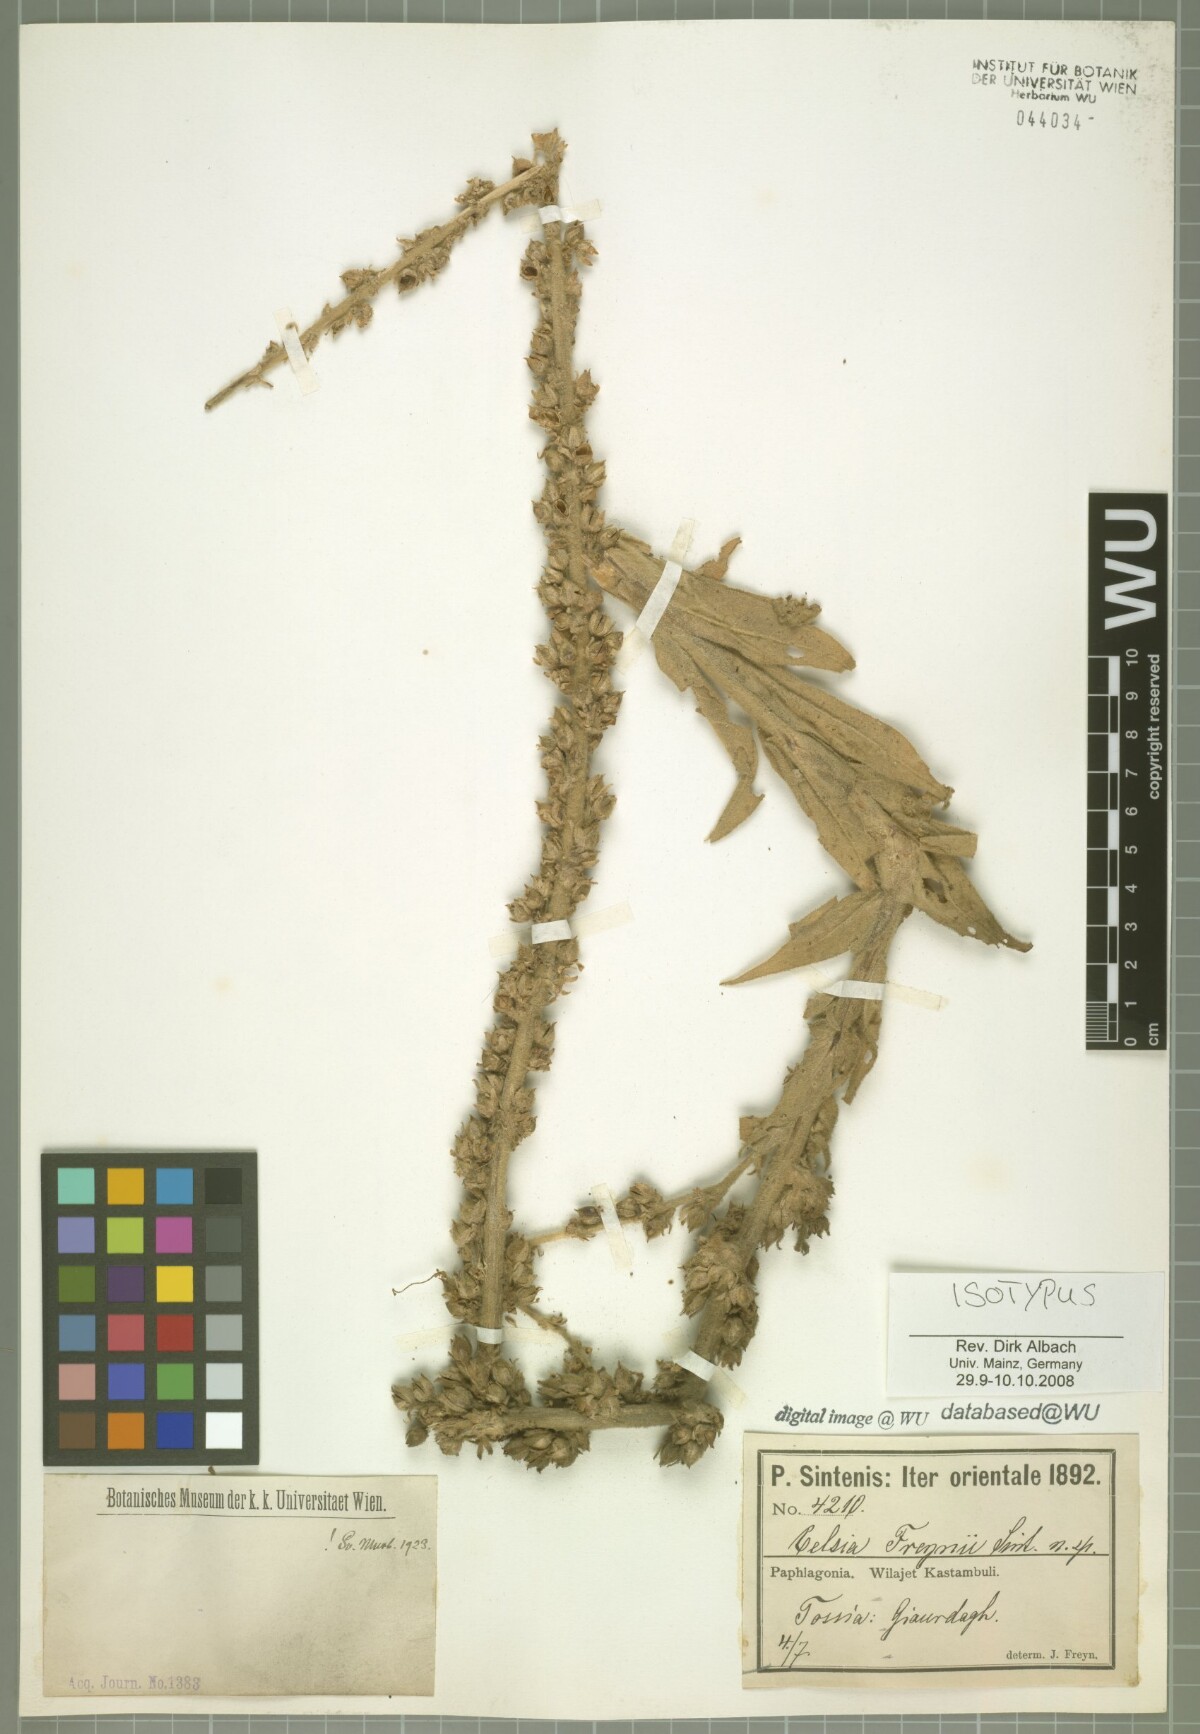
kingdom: Plantae
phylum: Tracheophyta
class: Magnoliopsida
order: Lamiales
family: Scrophulariaceae
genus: Verbascum
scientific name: Verbascum freynii
